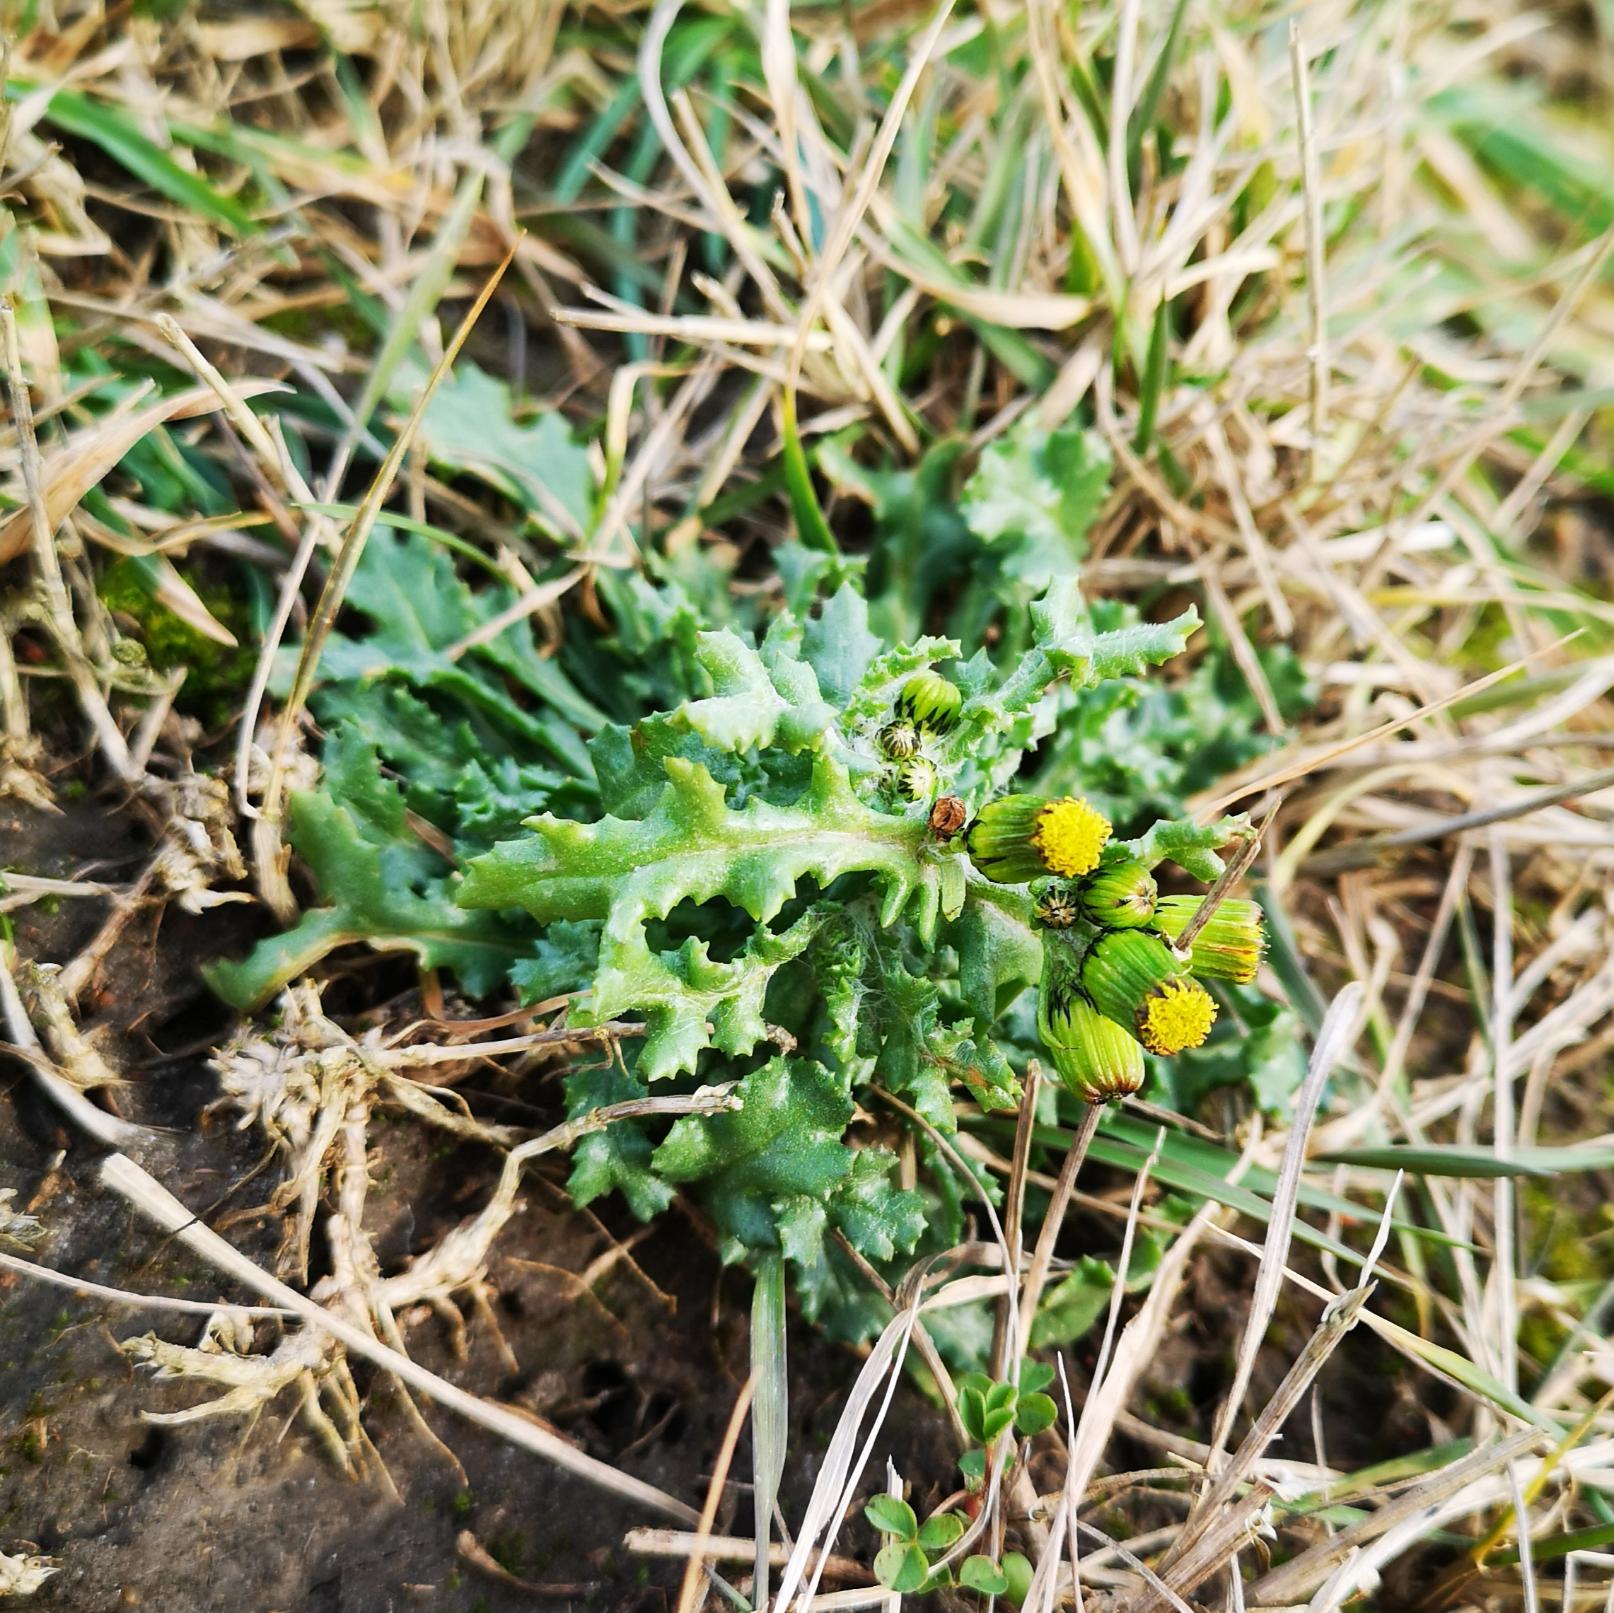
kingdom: Plantae
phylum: Tracheophyta
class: Magnoliopsida
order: Asterales
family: Asteraceae
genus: Senecio
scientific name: Senecio vulgaris
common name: Almindelig brandbæger
